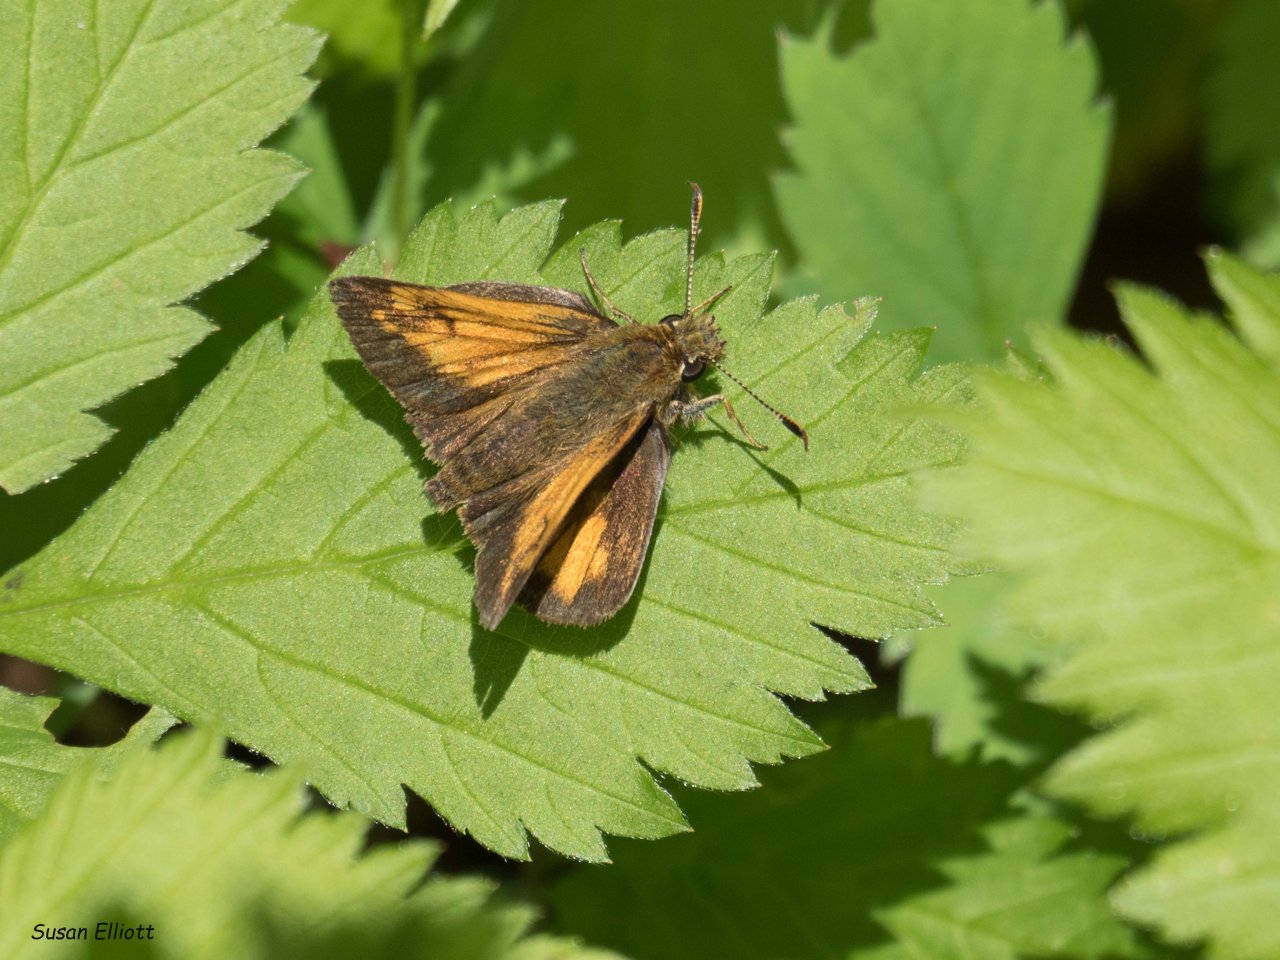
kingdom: Animalia
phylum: Arthropoda
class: Insecta
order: Lepidoptera
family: Hesperiidae
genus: Lon
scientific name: Lon hobomok
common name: Hobomok Skipper
